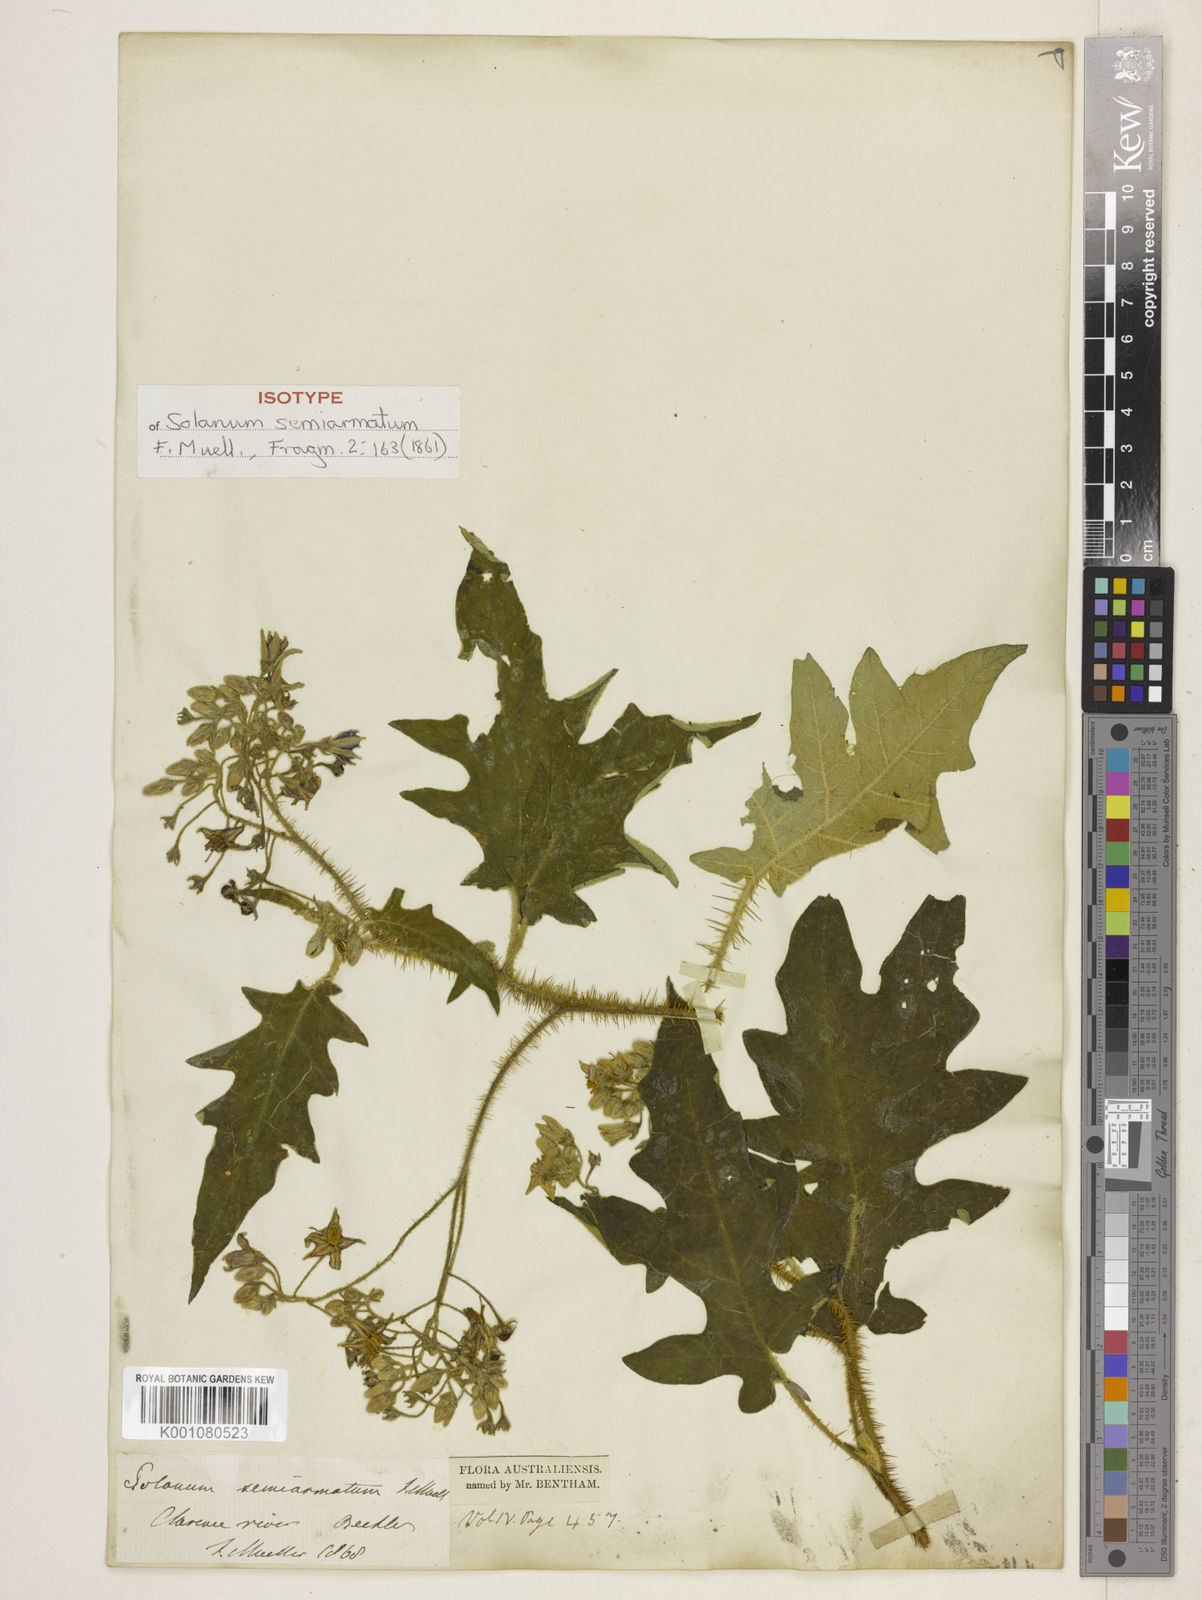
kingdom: Plantae
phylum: Tracheophyta
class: Magnoliopsida
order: Solanales
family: Solanaceae
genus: Solanum
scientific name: Solanum semiarmatum
